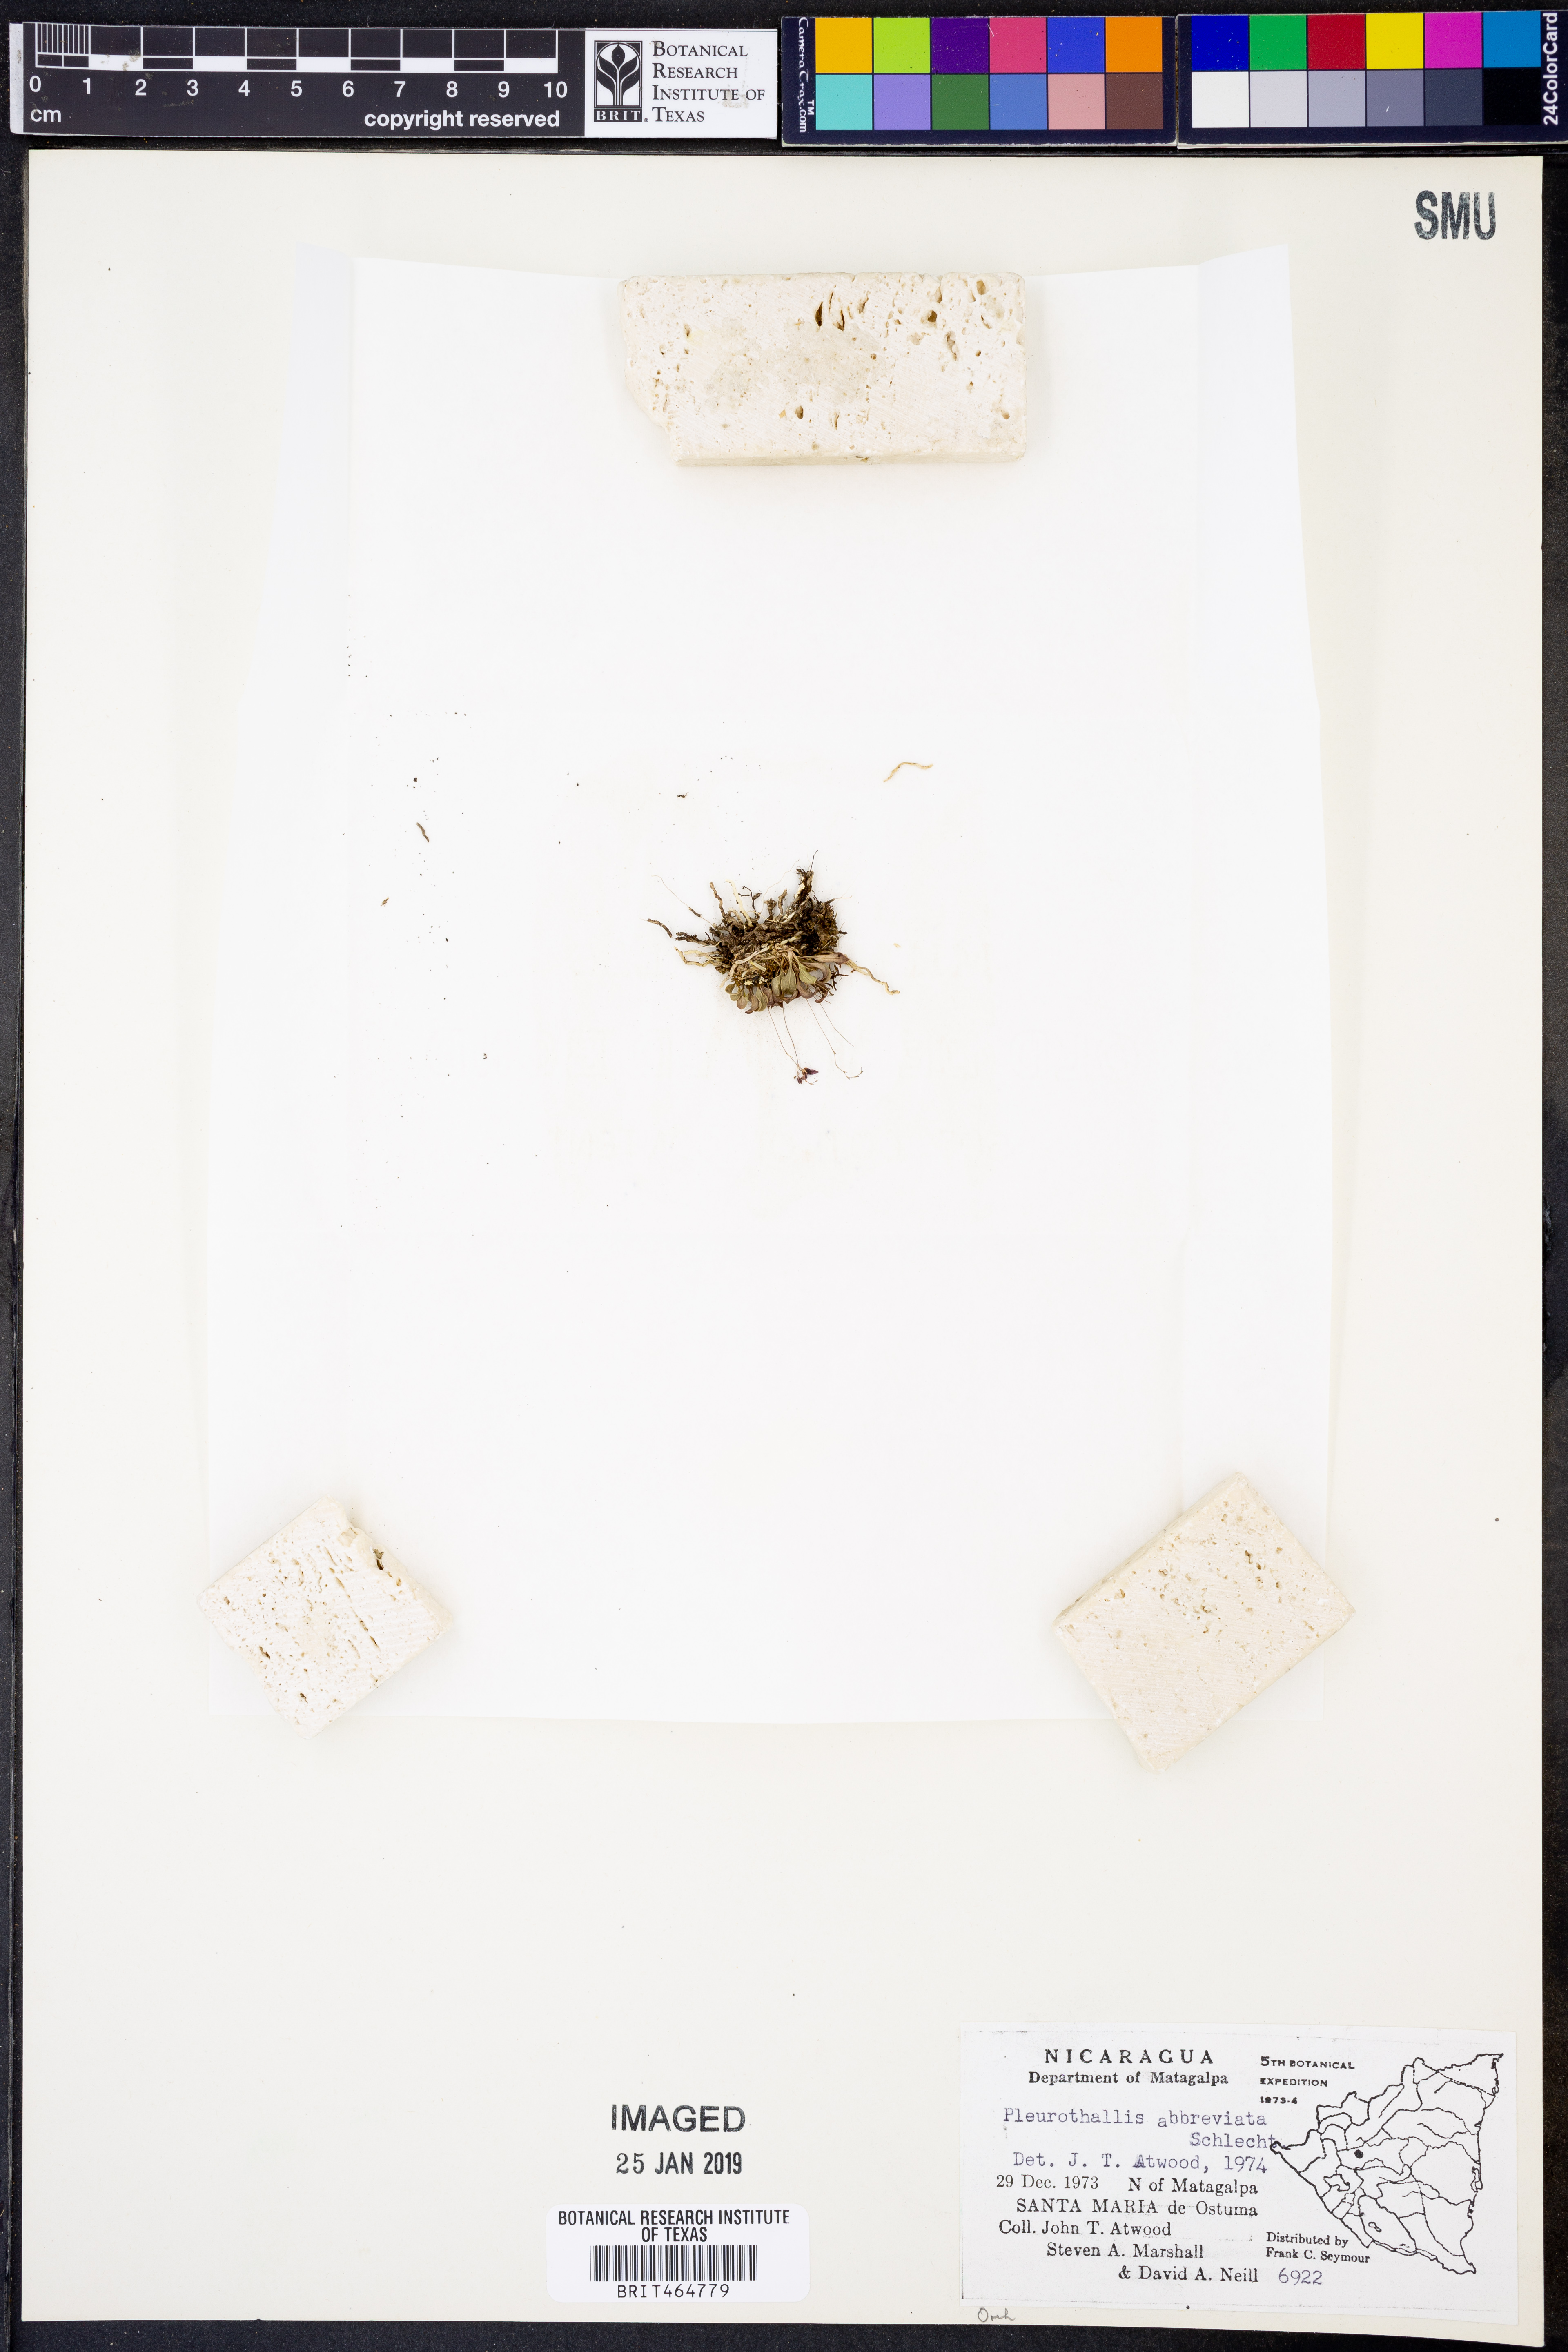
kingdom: Plantae
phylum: Tracheophyta
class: Liliopsida
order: Asparagales
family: Orchidaceae
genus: Anathallis
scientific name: Anathallis abbreviata
